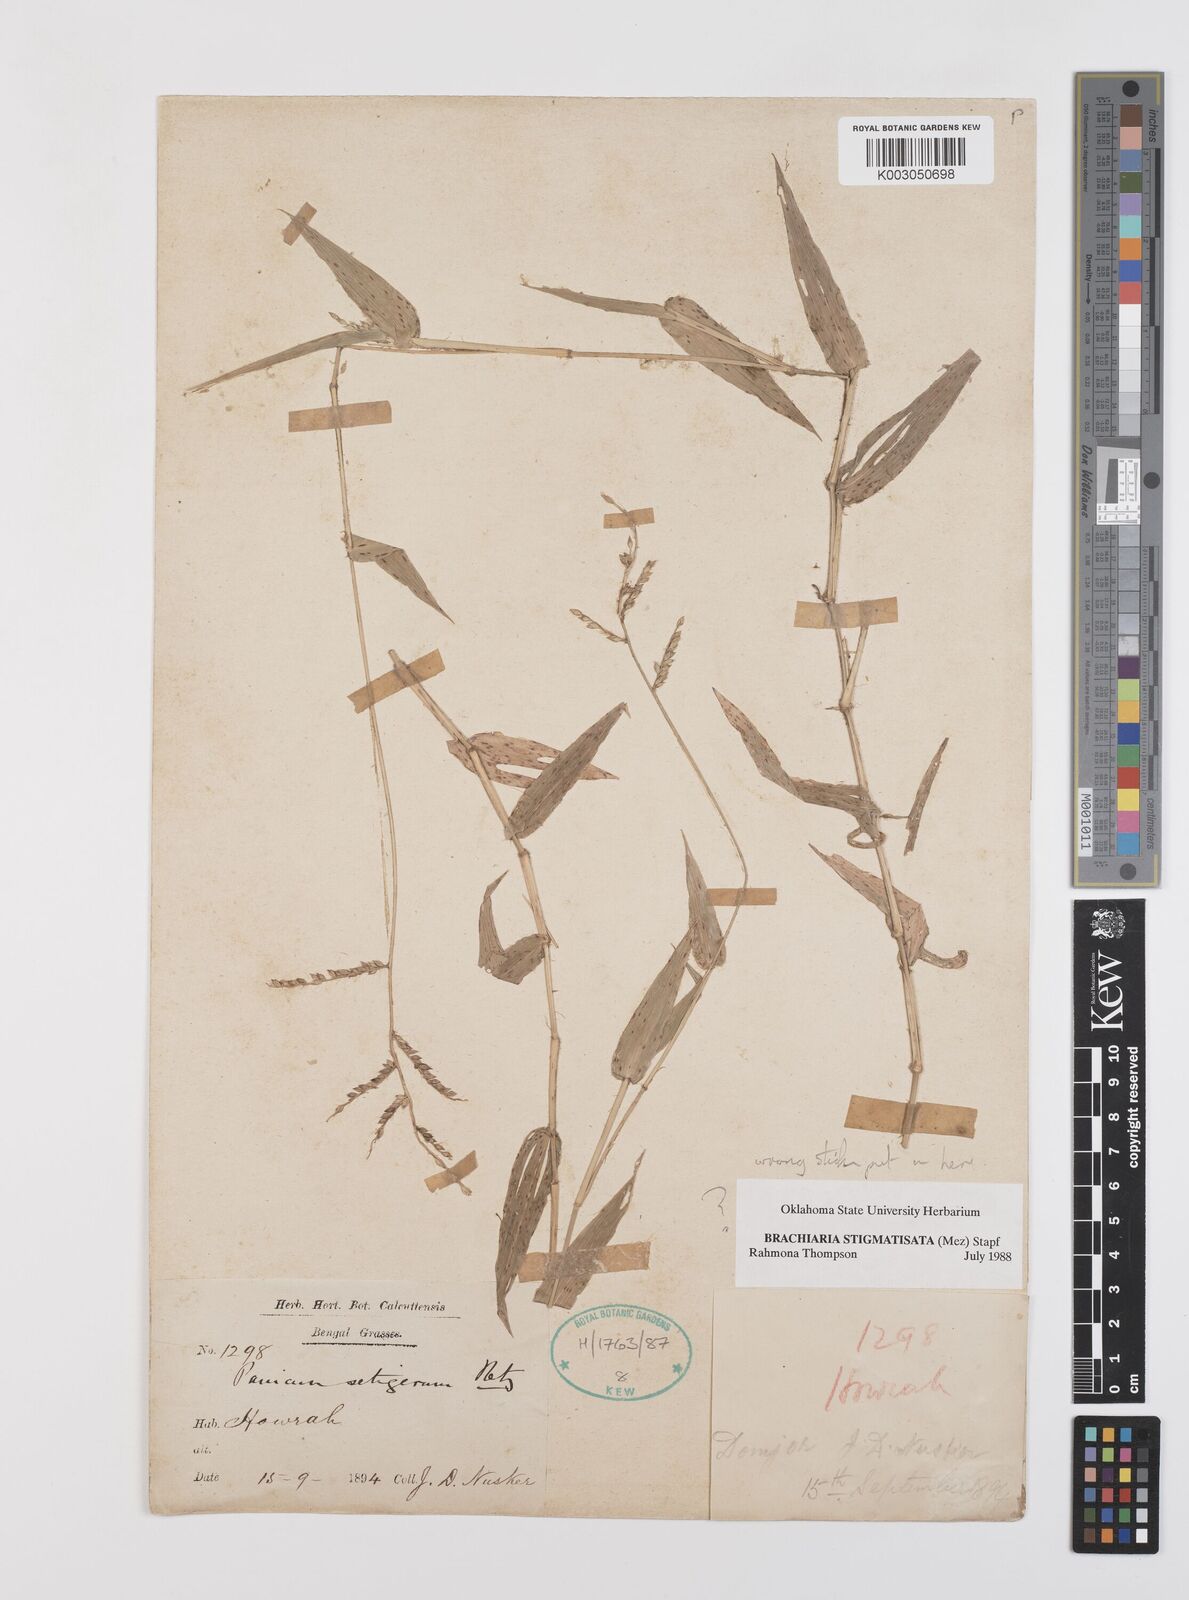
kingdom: Plantae
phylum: Tracheophyta
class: Liliopsida
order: Poales
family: Poaceae
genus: Brachiaria
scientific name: Brachiaria
